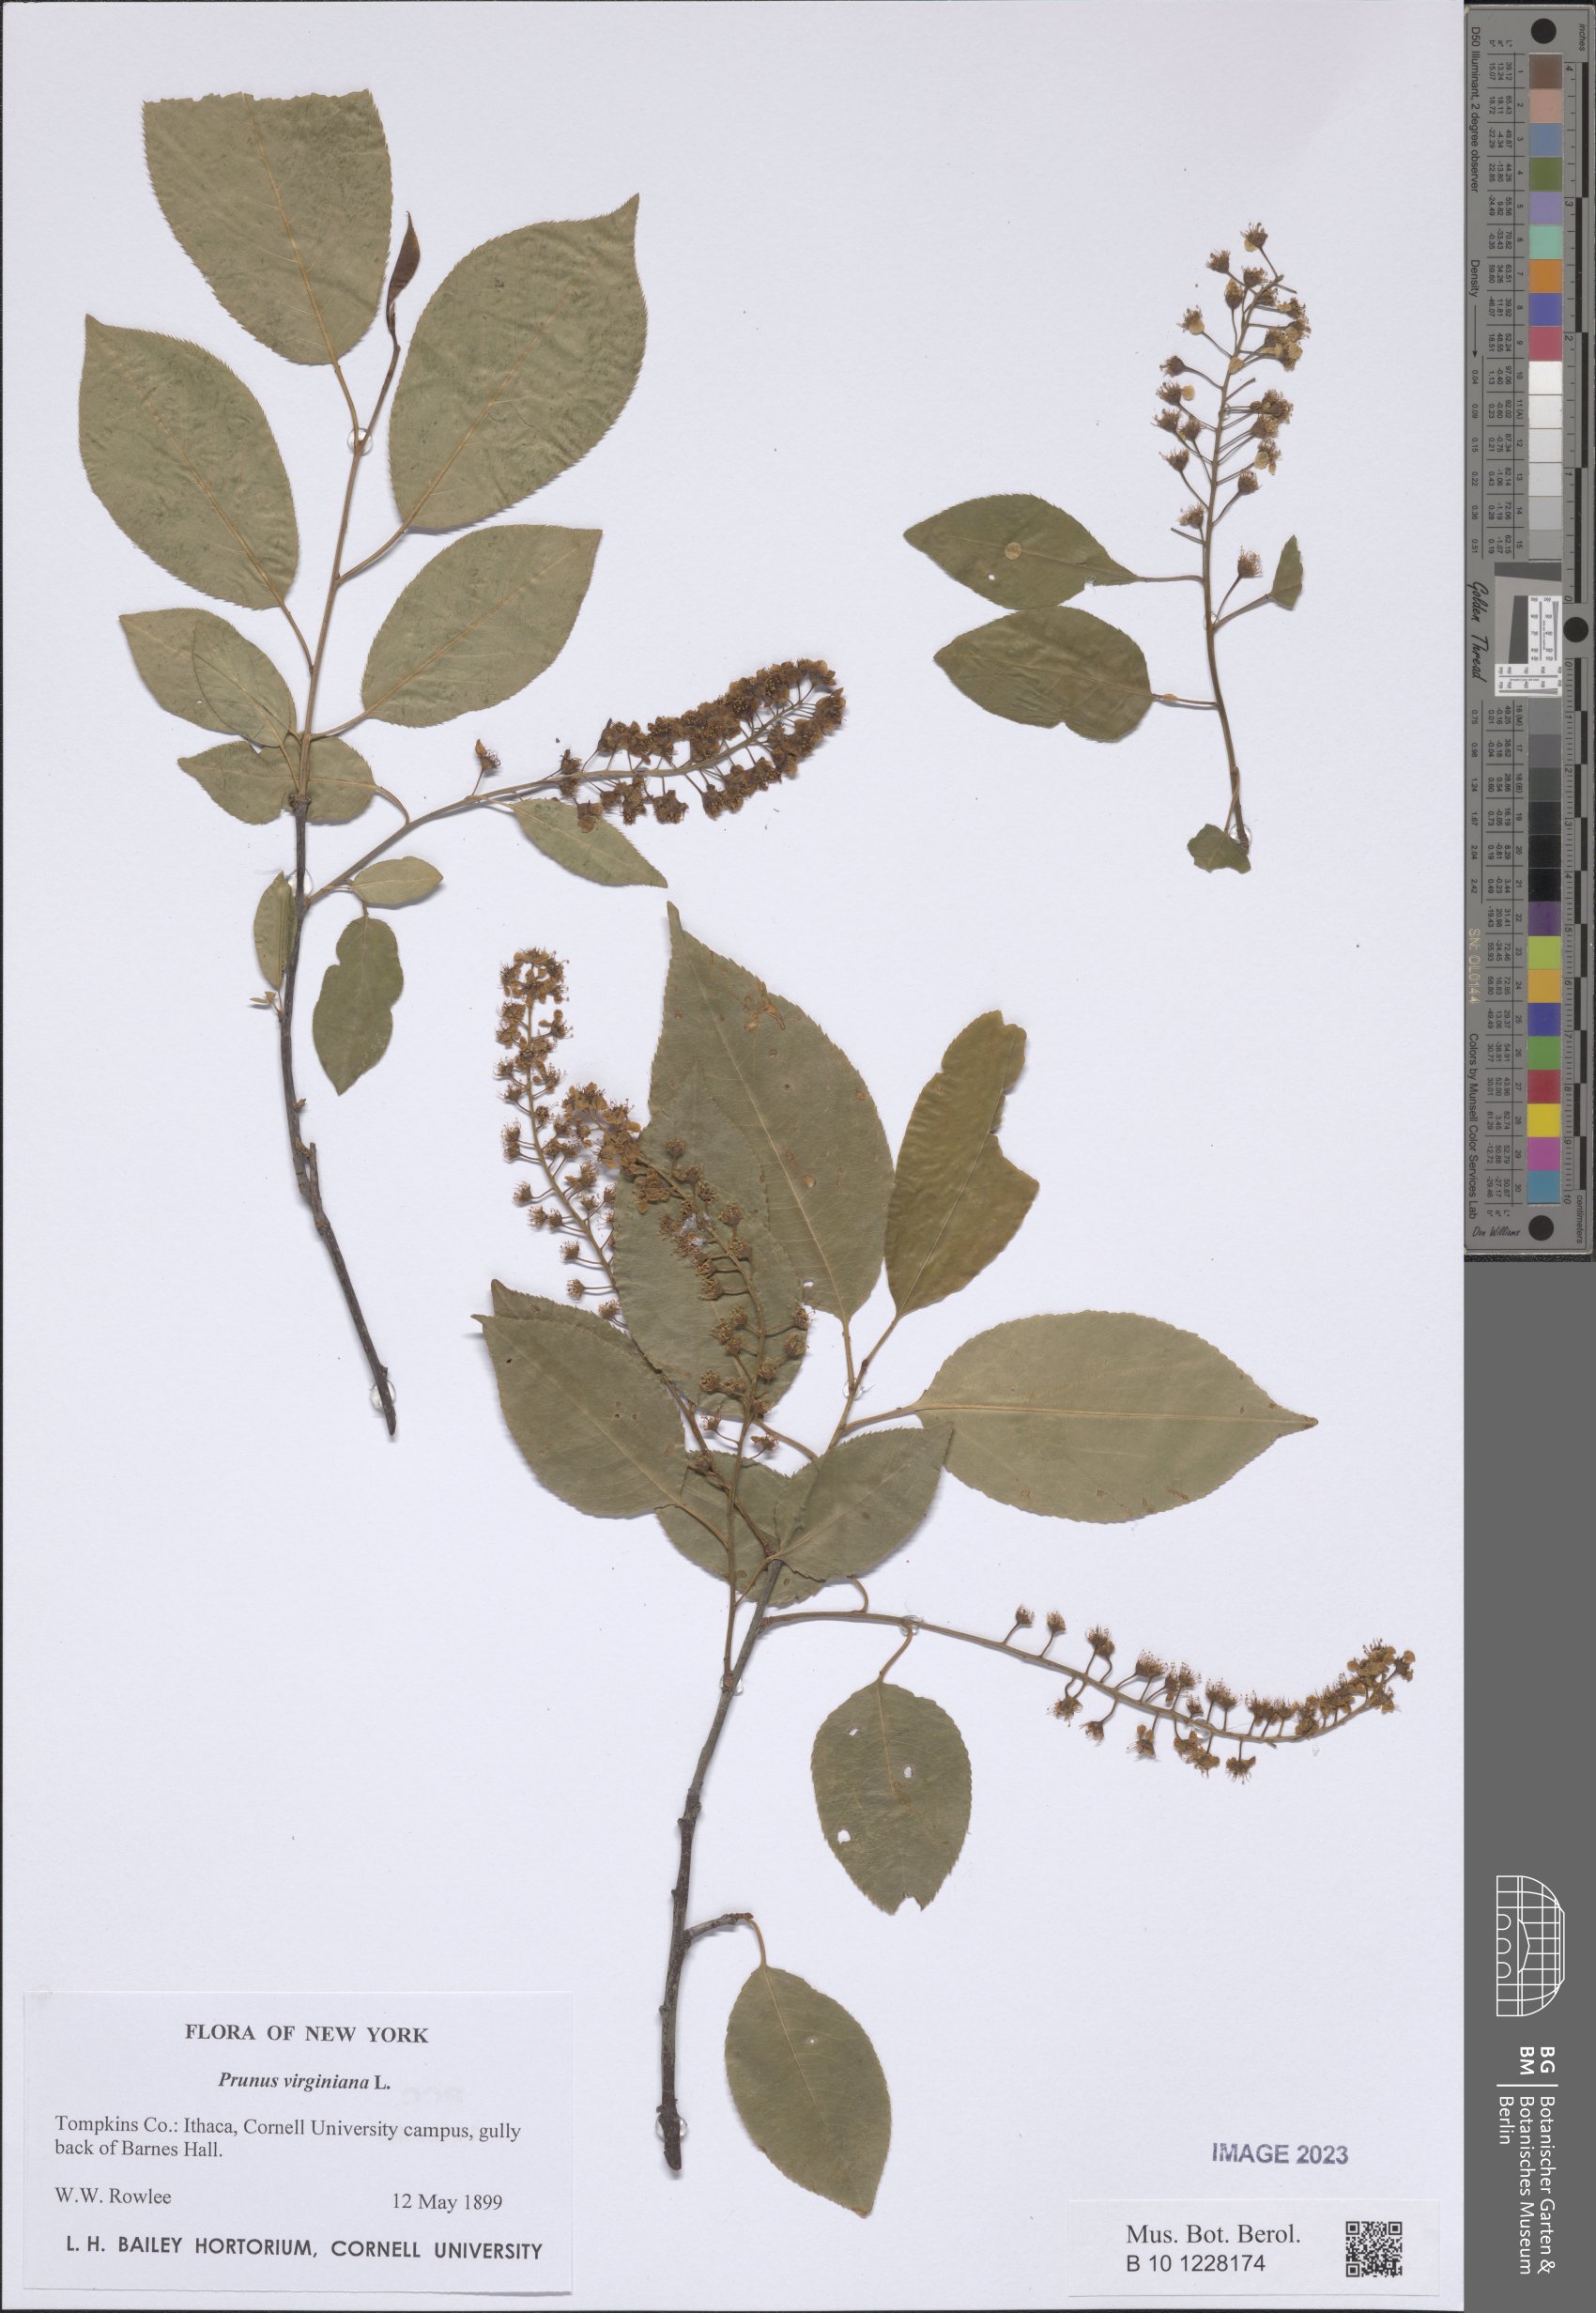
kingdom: Plantae
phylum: Tracheophyta
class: Magnoliopsida
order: Rosales
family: Rosaceae
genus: Prunus
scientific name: Prunus virginiana
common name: Chokecherry
